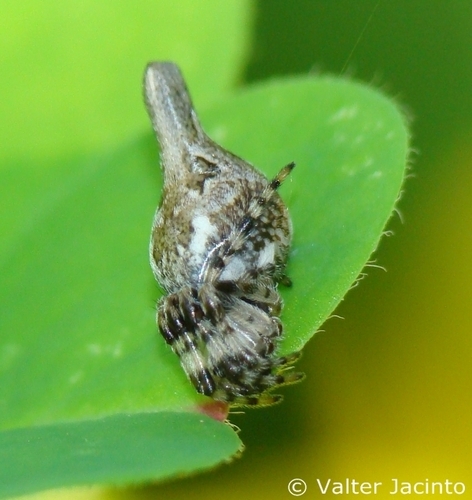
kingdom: Animalia
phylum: Arthropoda
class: Arachnida
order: Araneae
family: Araneidae
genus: Cyclosa
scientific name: Cyclosa conica
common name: Conical trashline orbweaver
